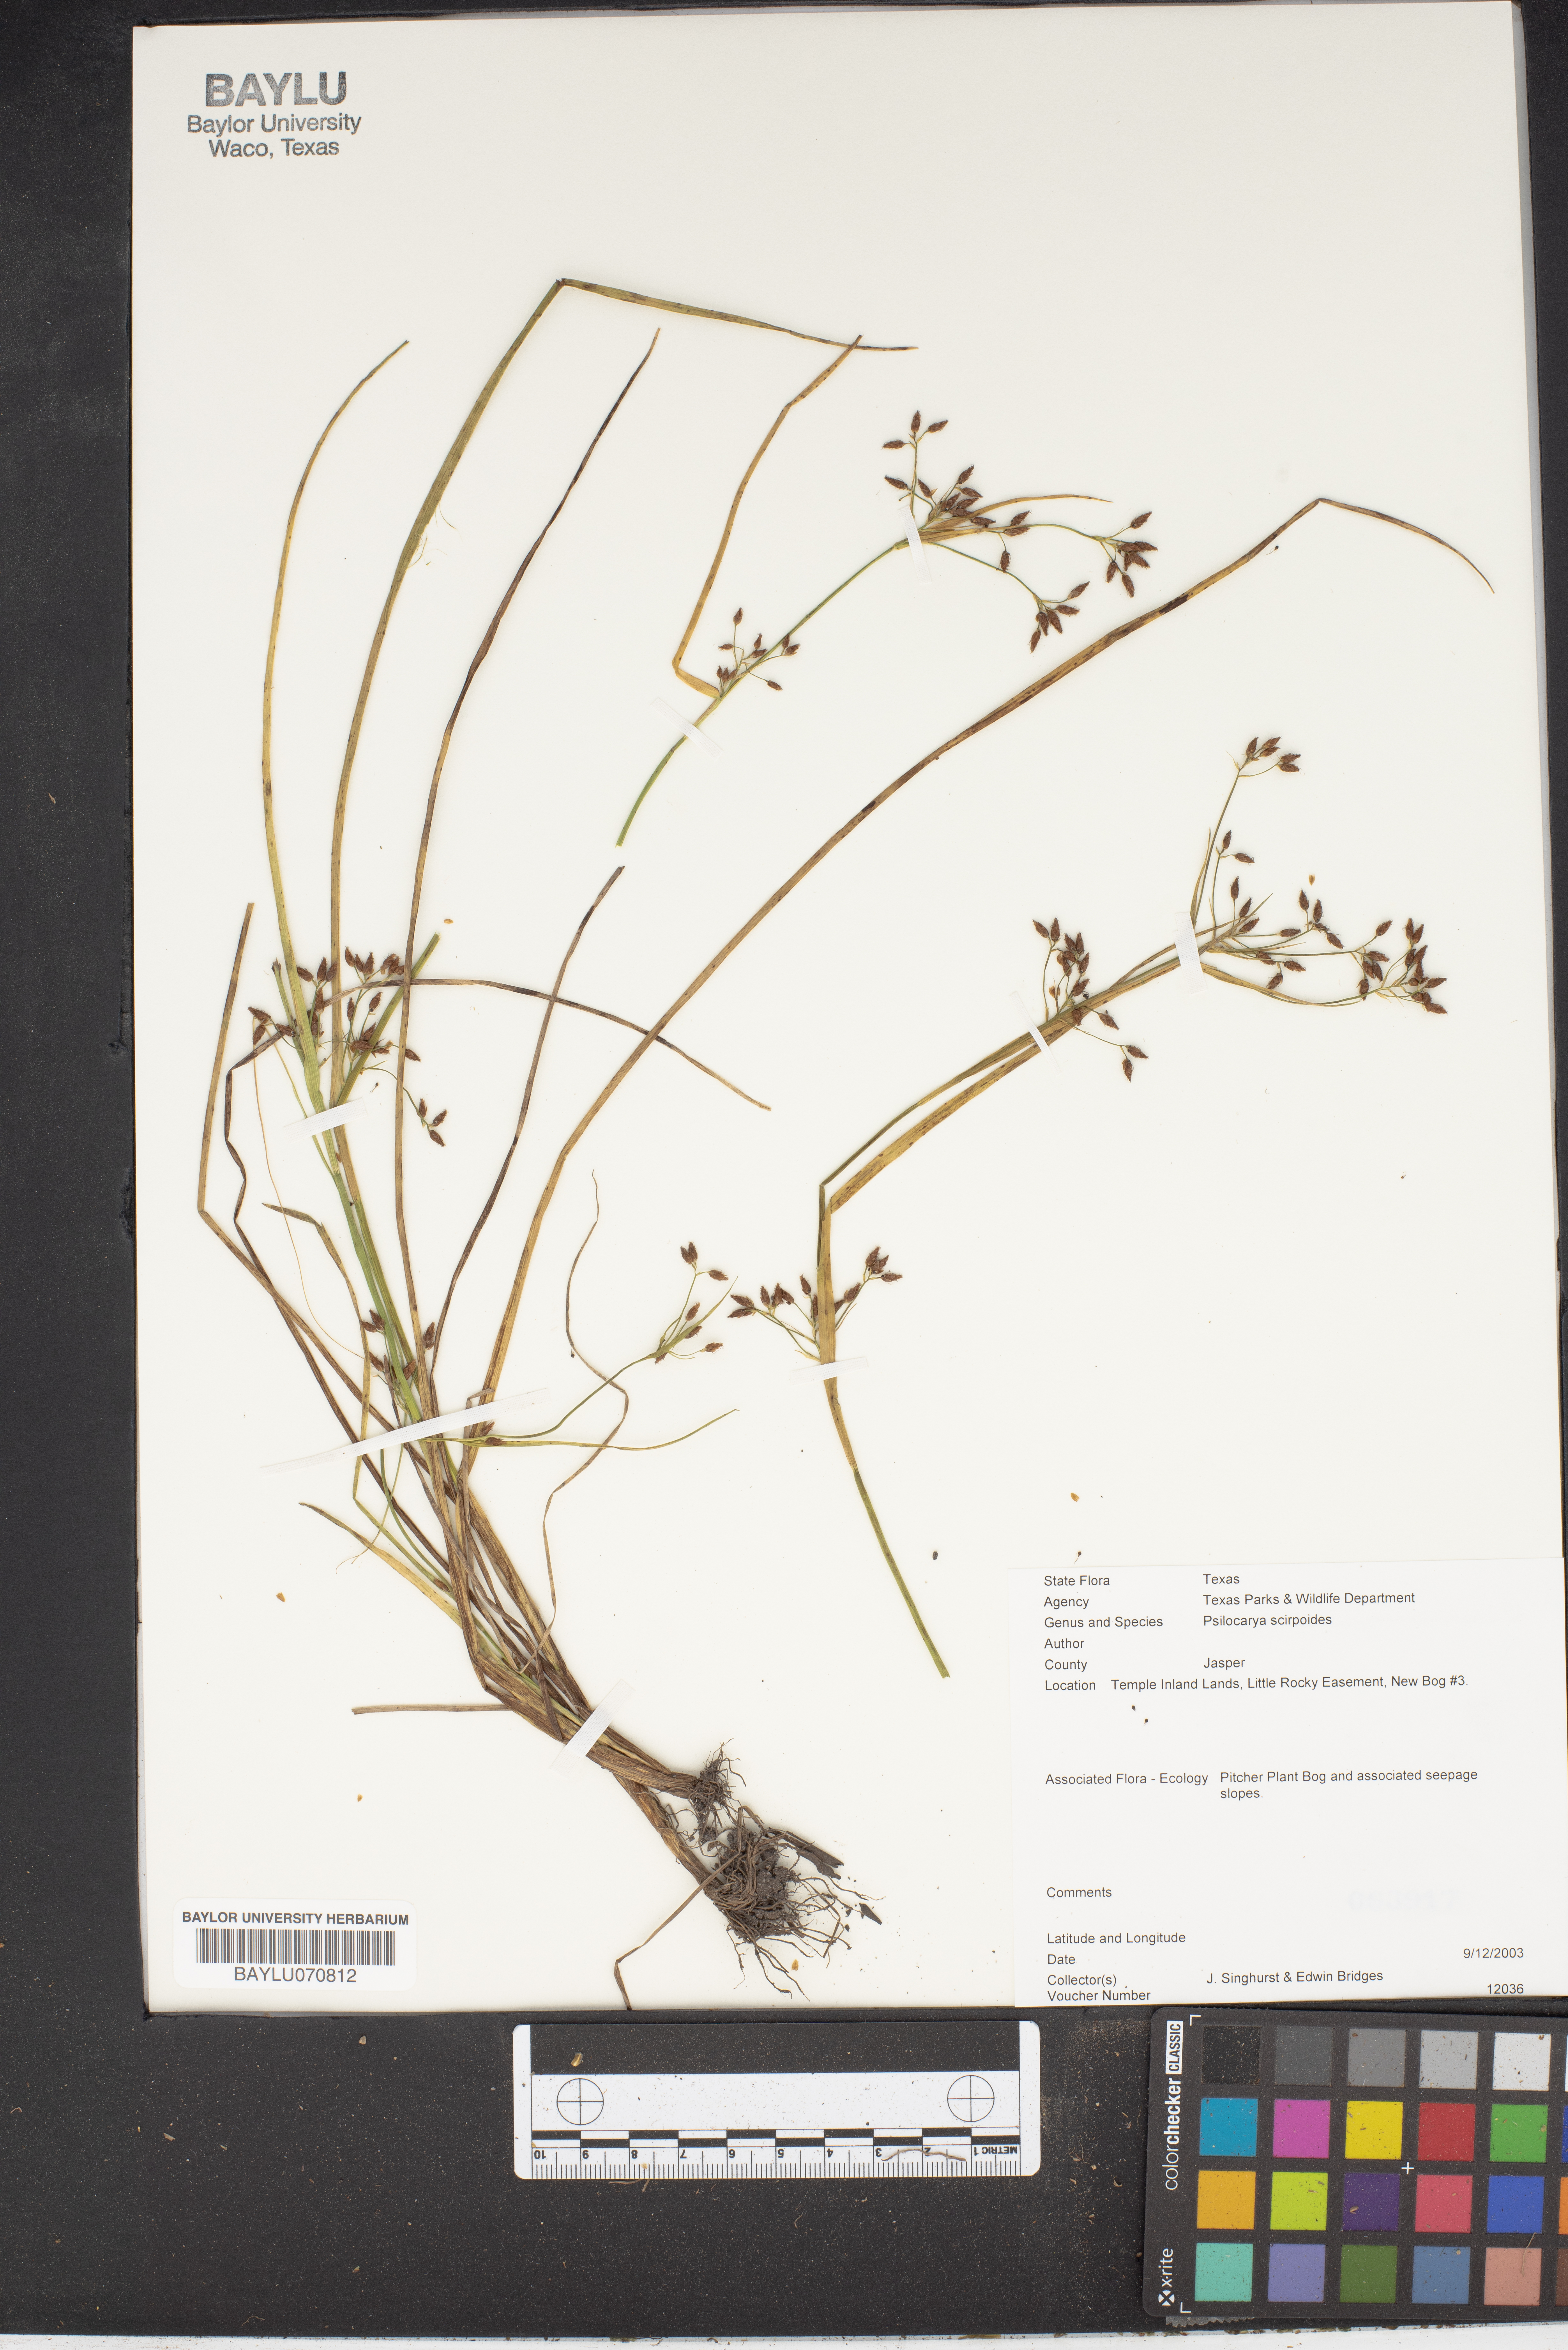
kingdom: Plantae
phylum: Tracheophyta
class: Liliopsida
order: Poales
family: Cyperaceae
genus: Rhynchospora
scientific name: Rhynchospora scirpoides
